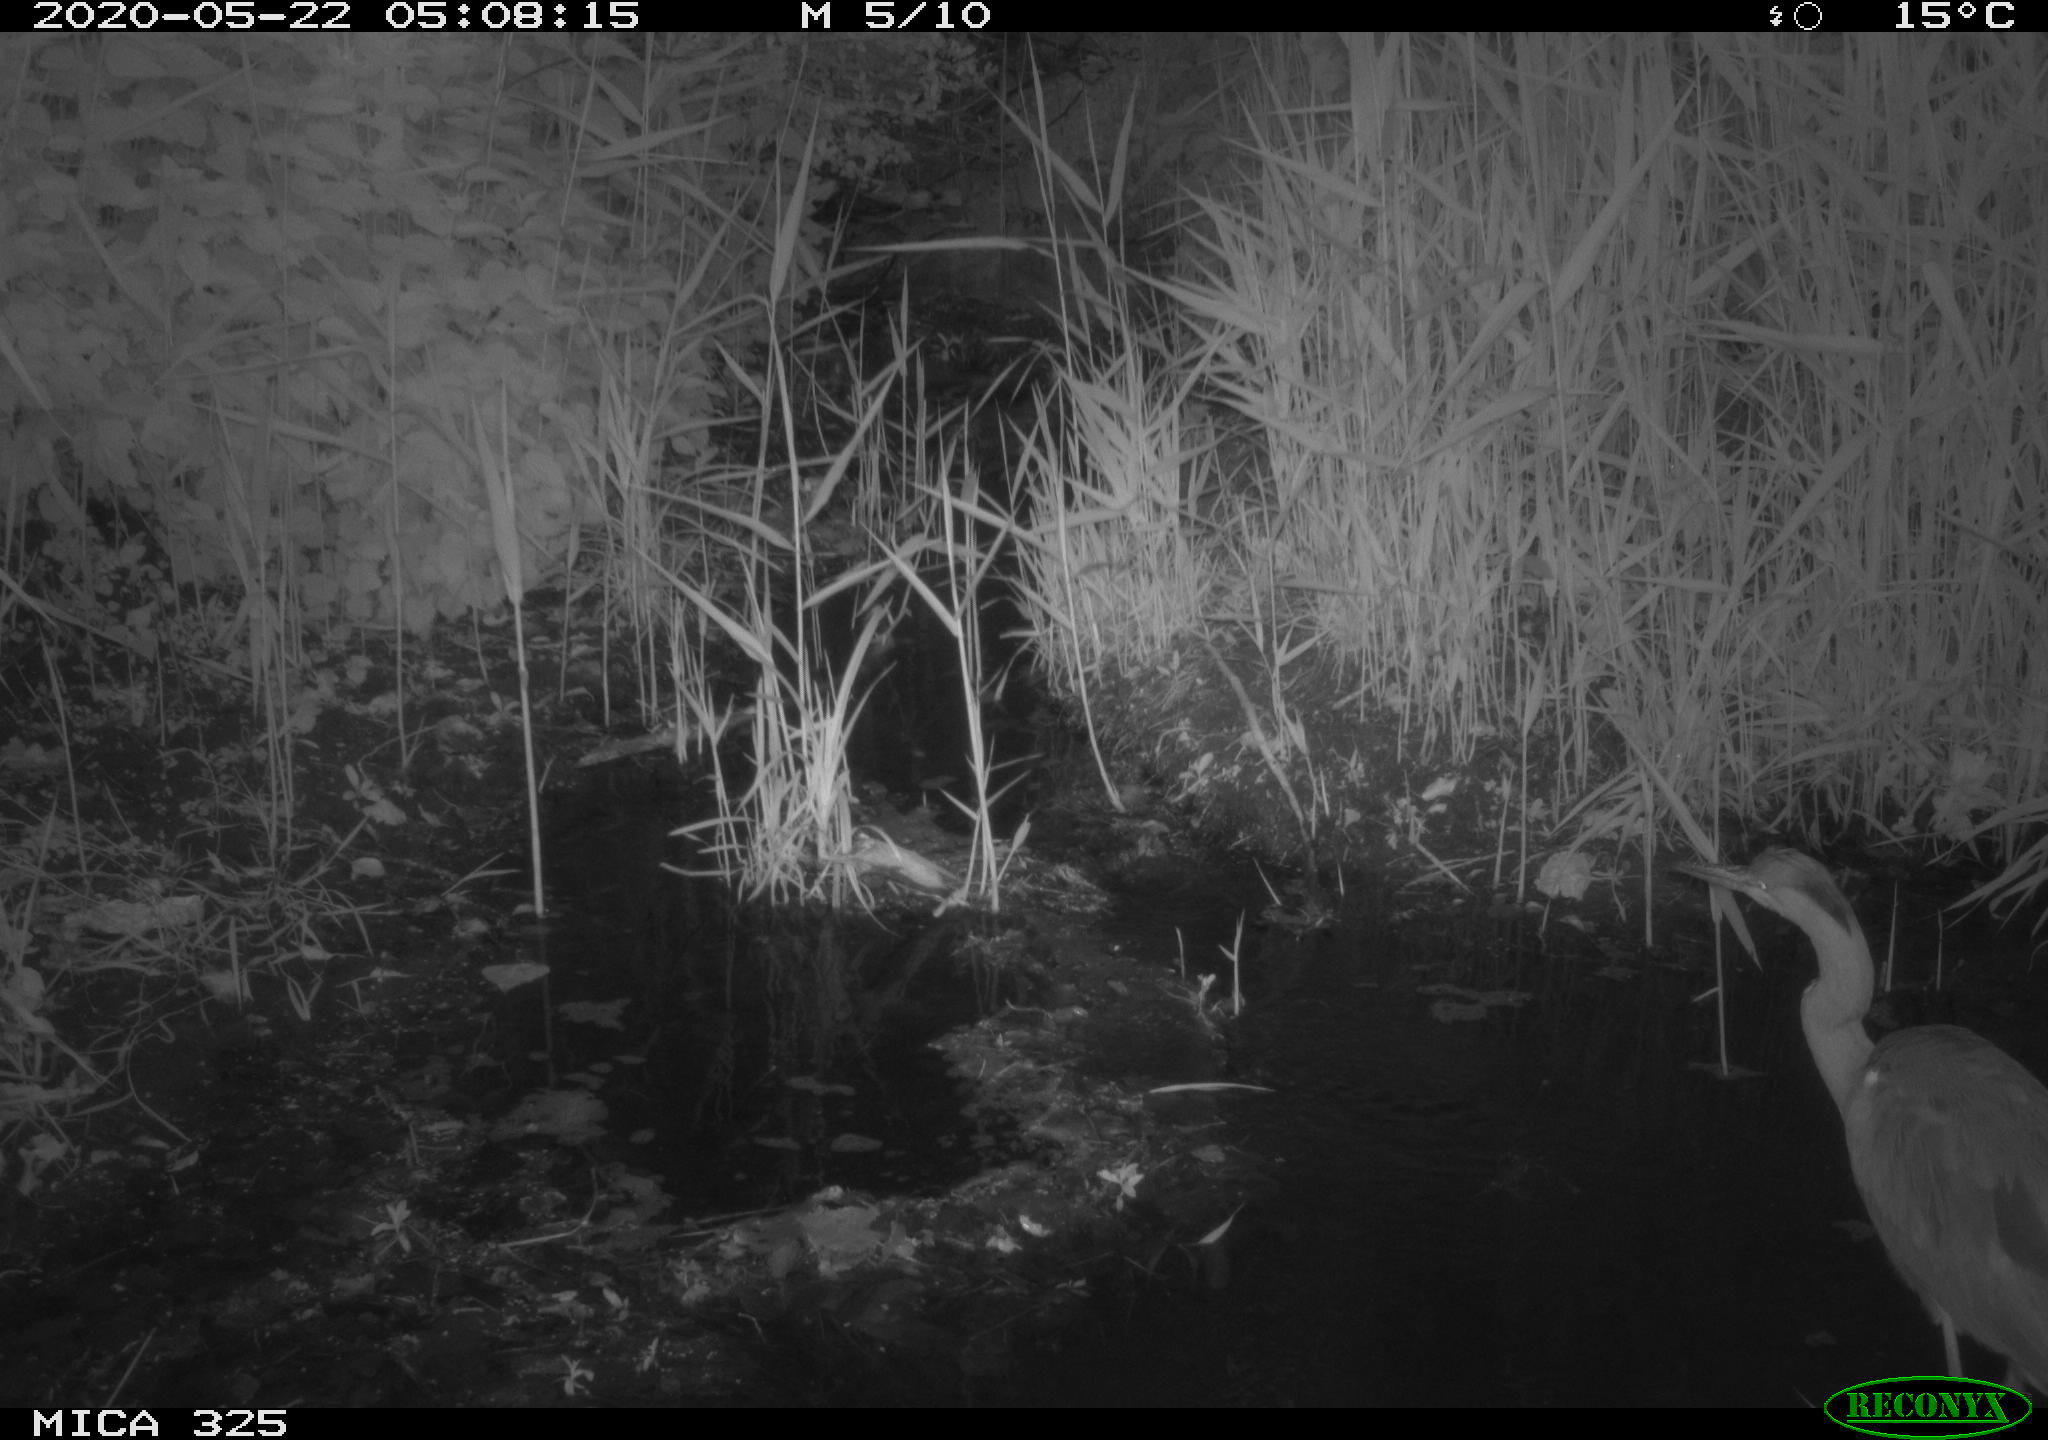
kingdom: Animalia
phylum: Chordata
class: Aves
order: Pelecaniformes
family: Ardeidae
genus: Ardea
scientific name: Ardea cinerea
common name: Grey heron
